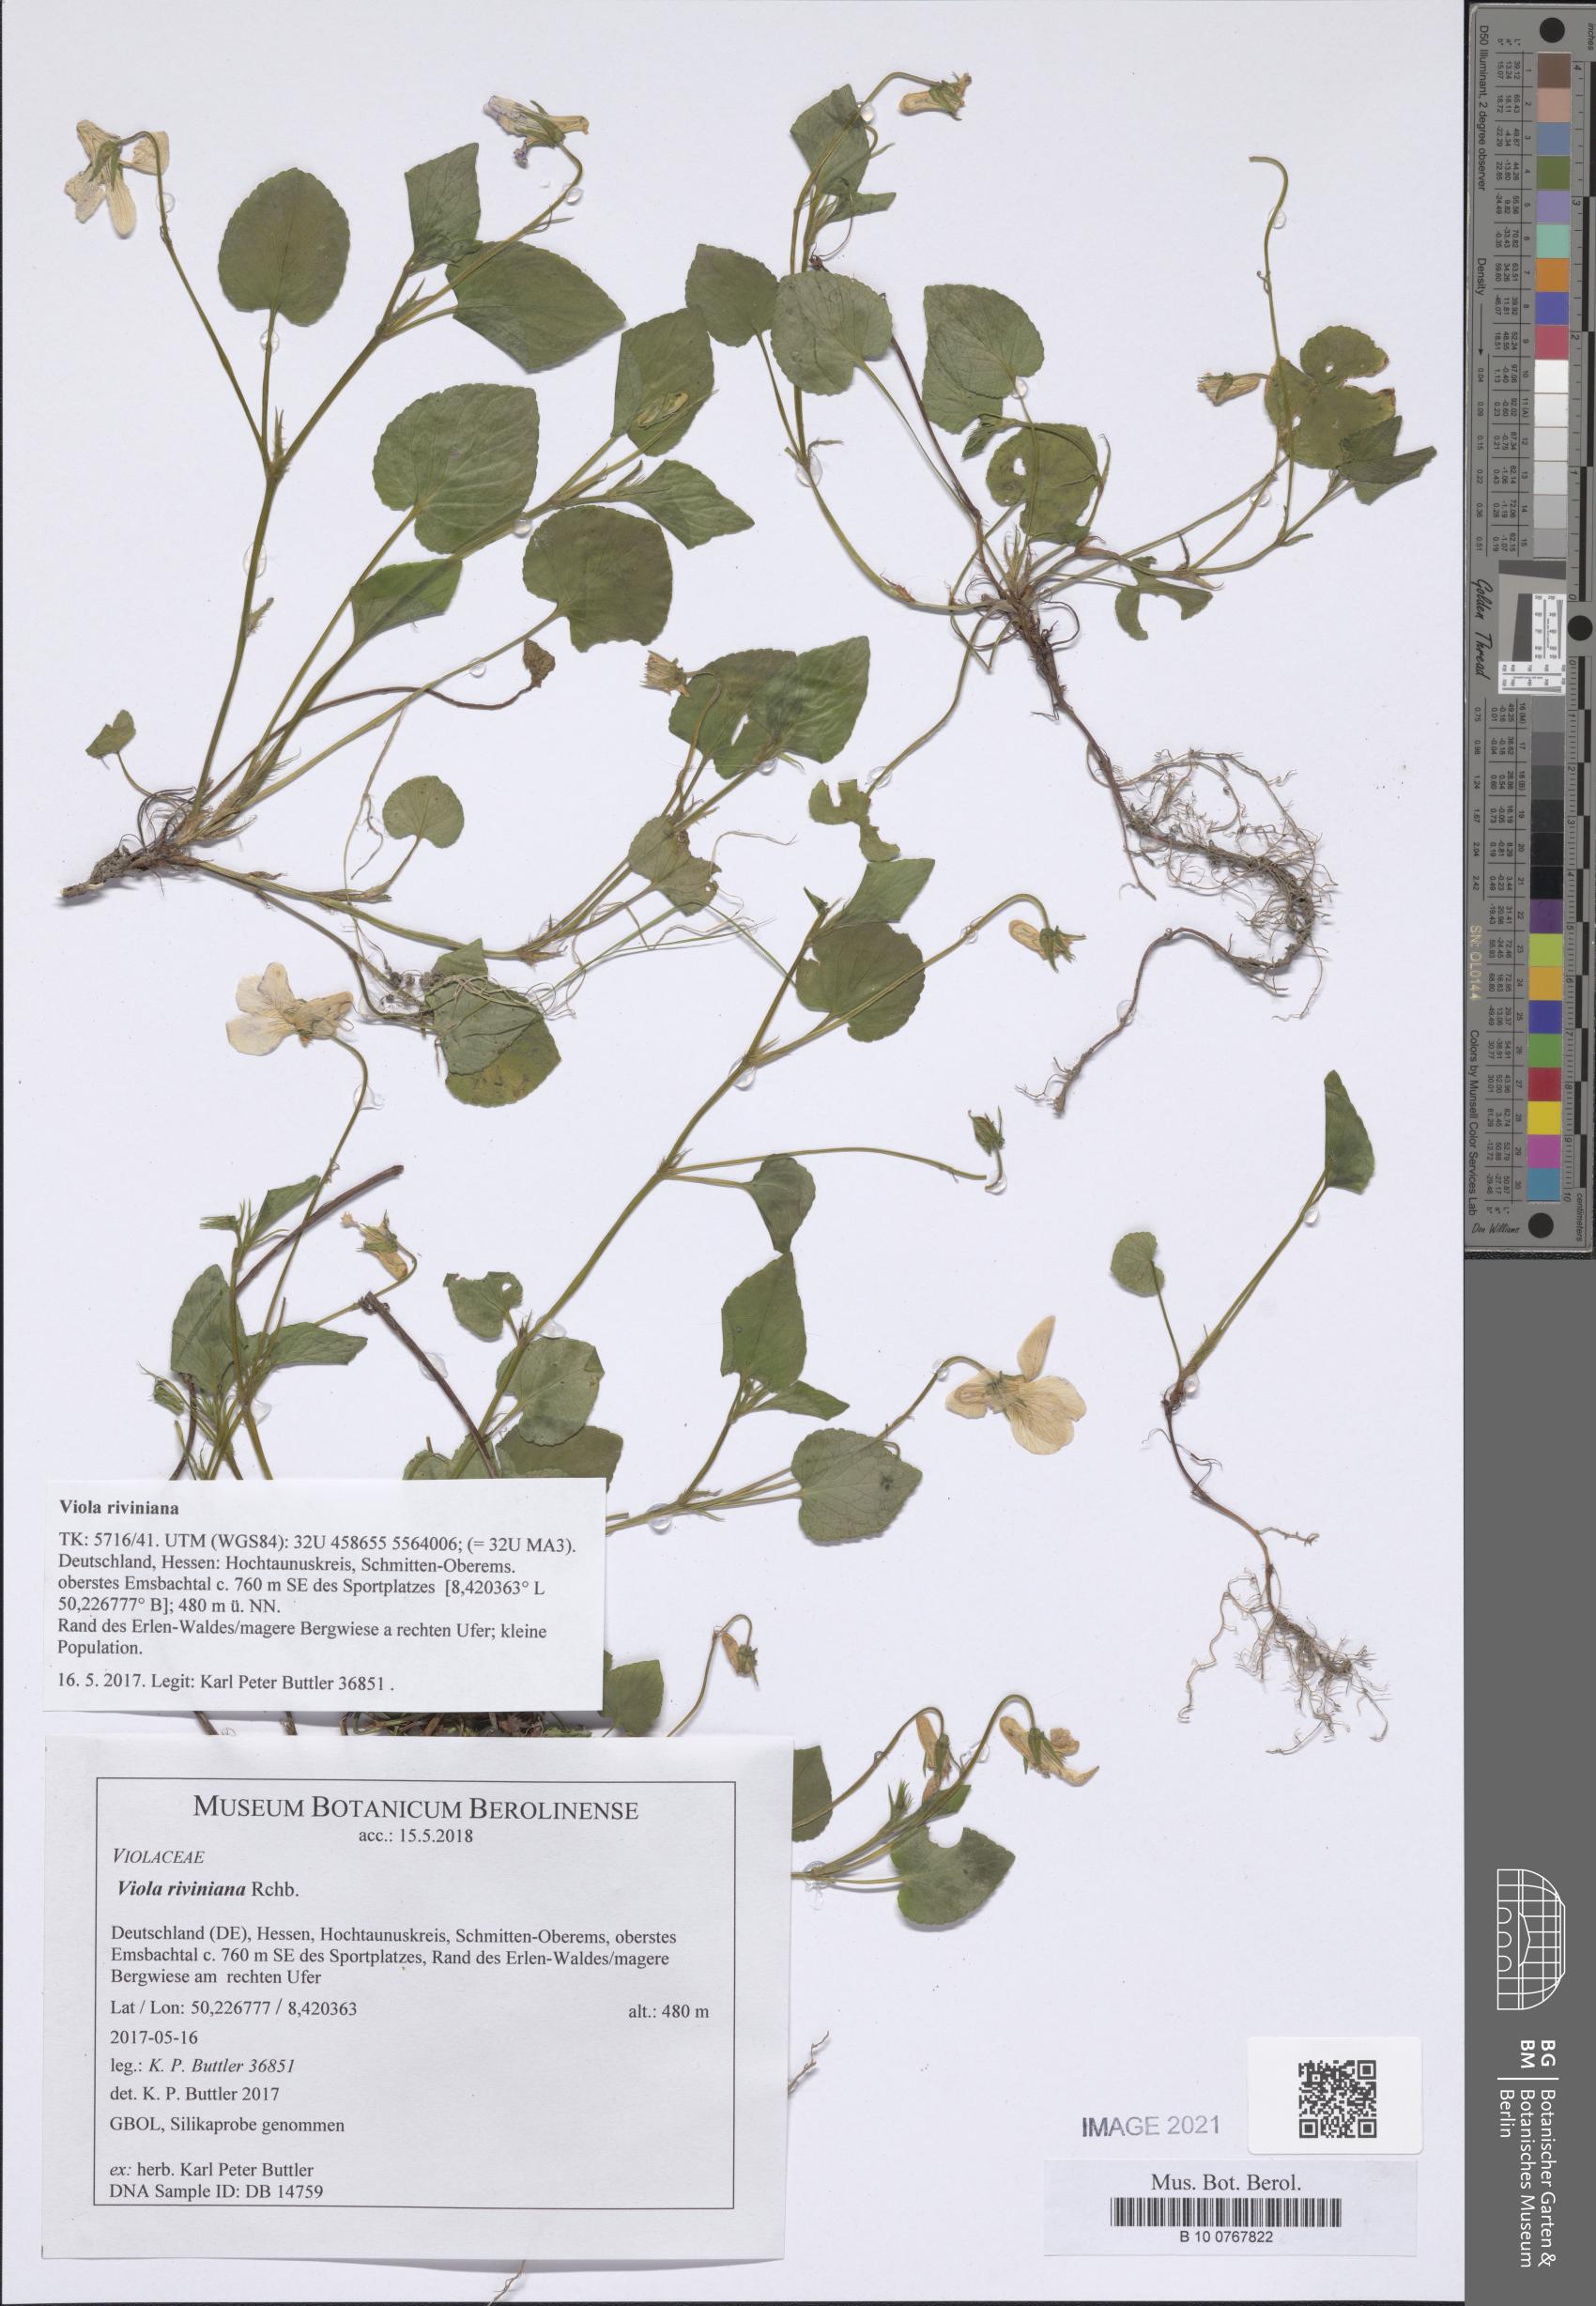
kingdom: Plantae
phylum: Tracheophyta
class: Magnoliopsida
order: Malpighiales
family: Violaceae
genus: Viola
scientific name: Viola riviniana
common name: Common dog-violet
